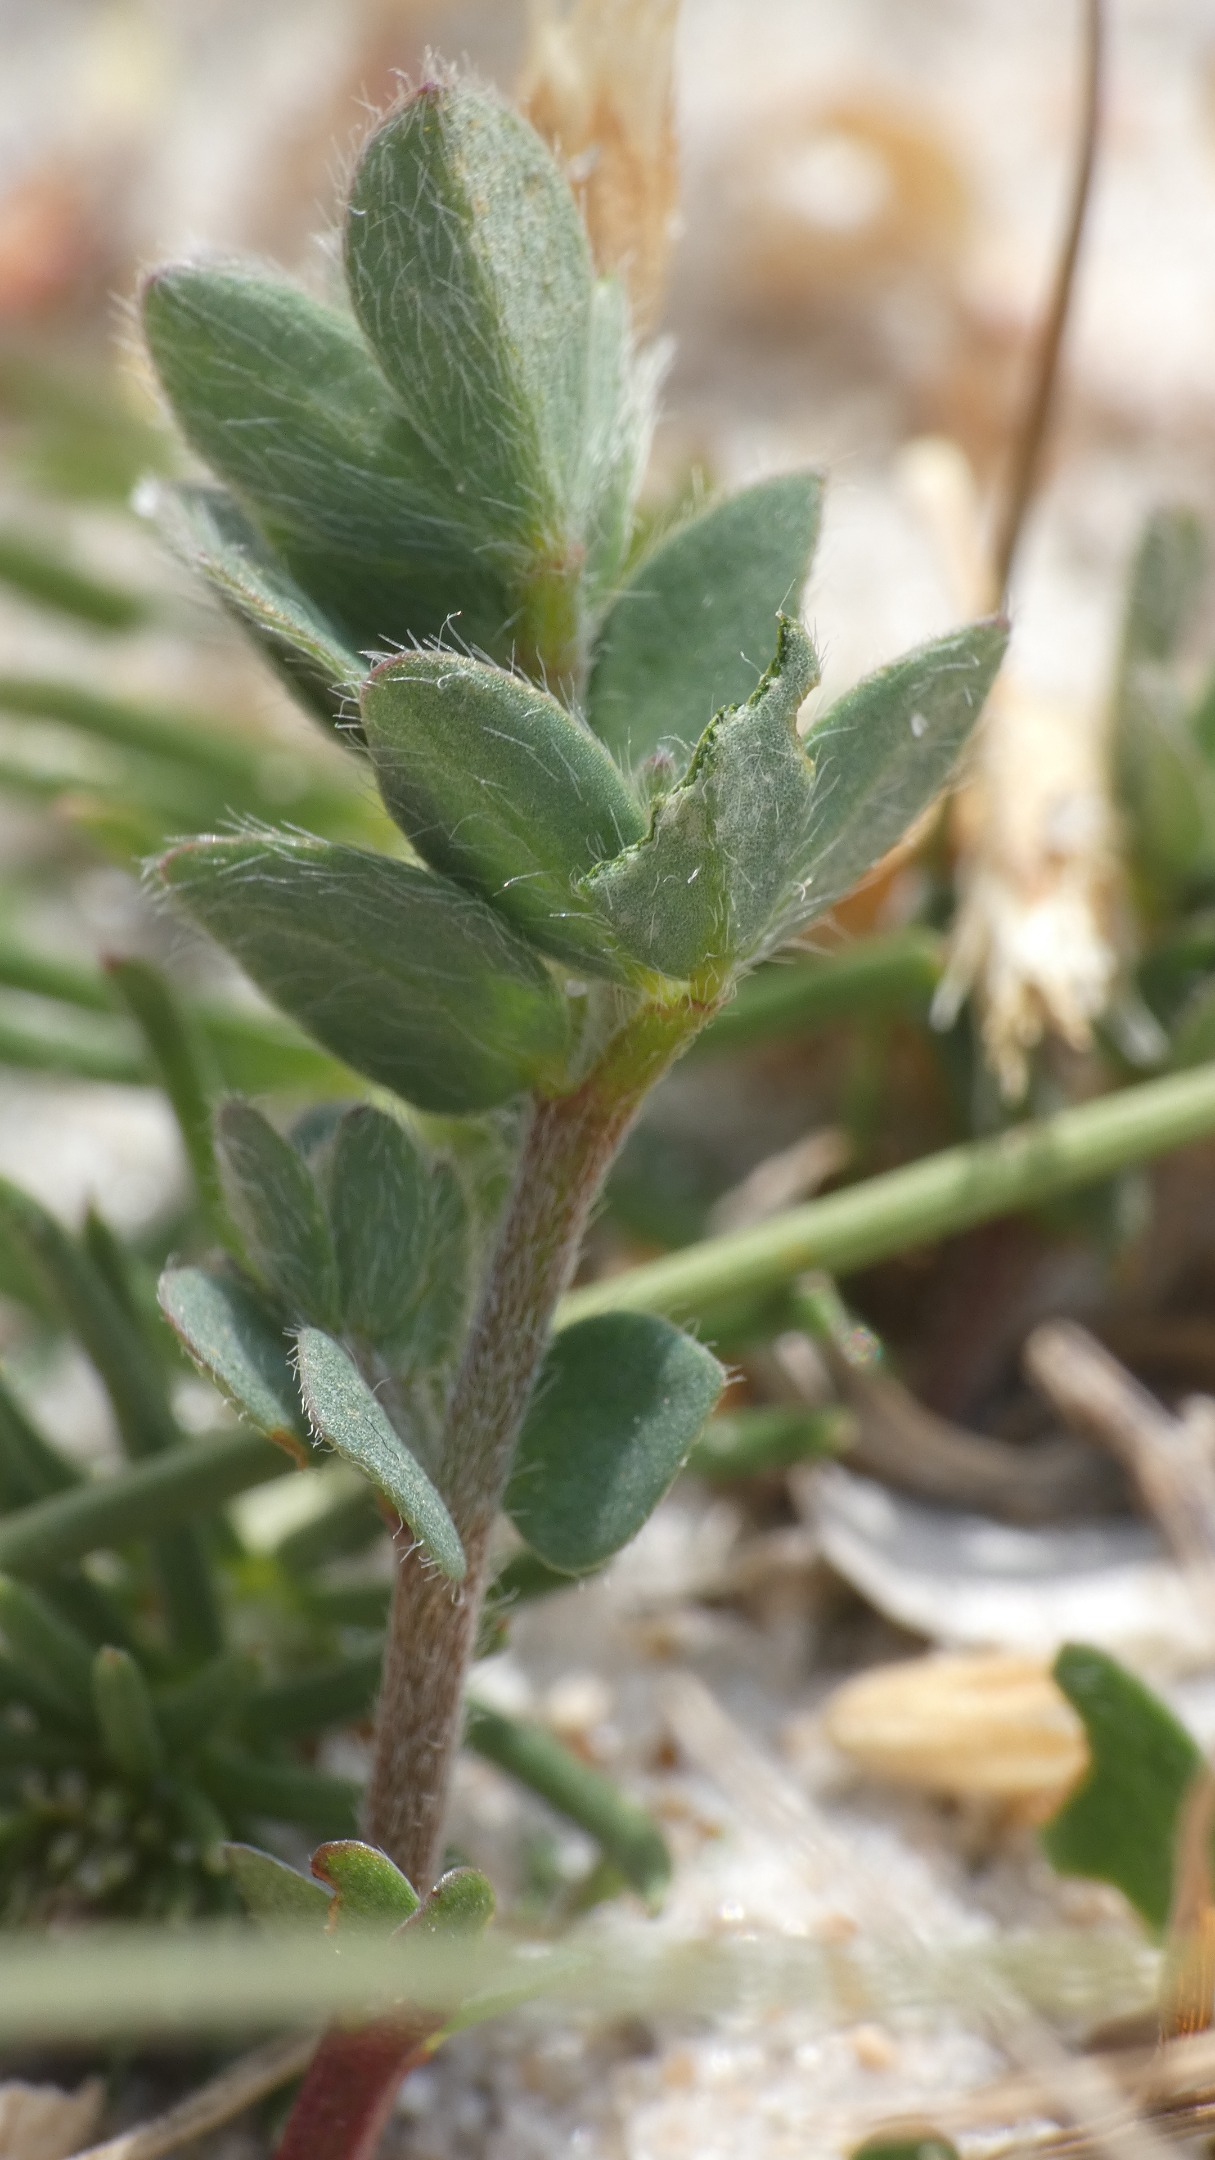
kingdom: Plantae
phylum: Tracheophyta
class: Magnoliopsida
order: Fabales
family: Fabaceae
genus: Lotus
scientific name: Lotus corniculatus
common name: Almindelig kællingetand
